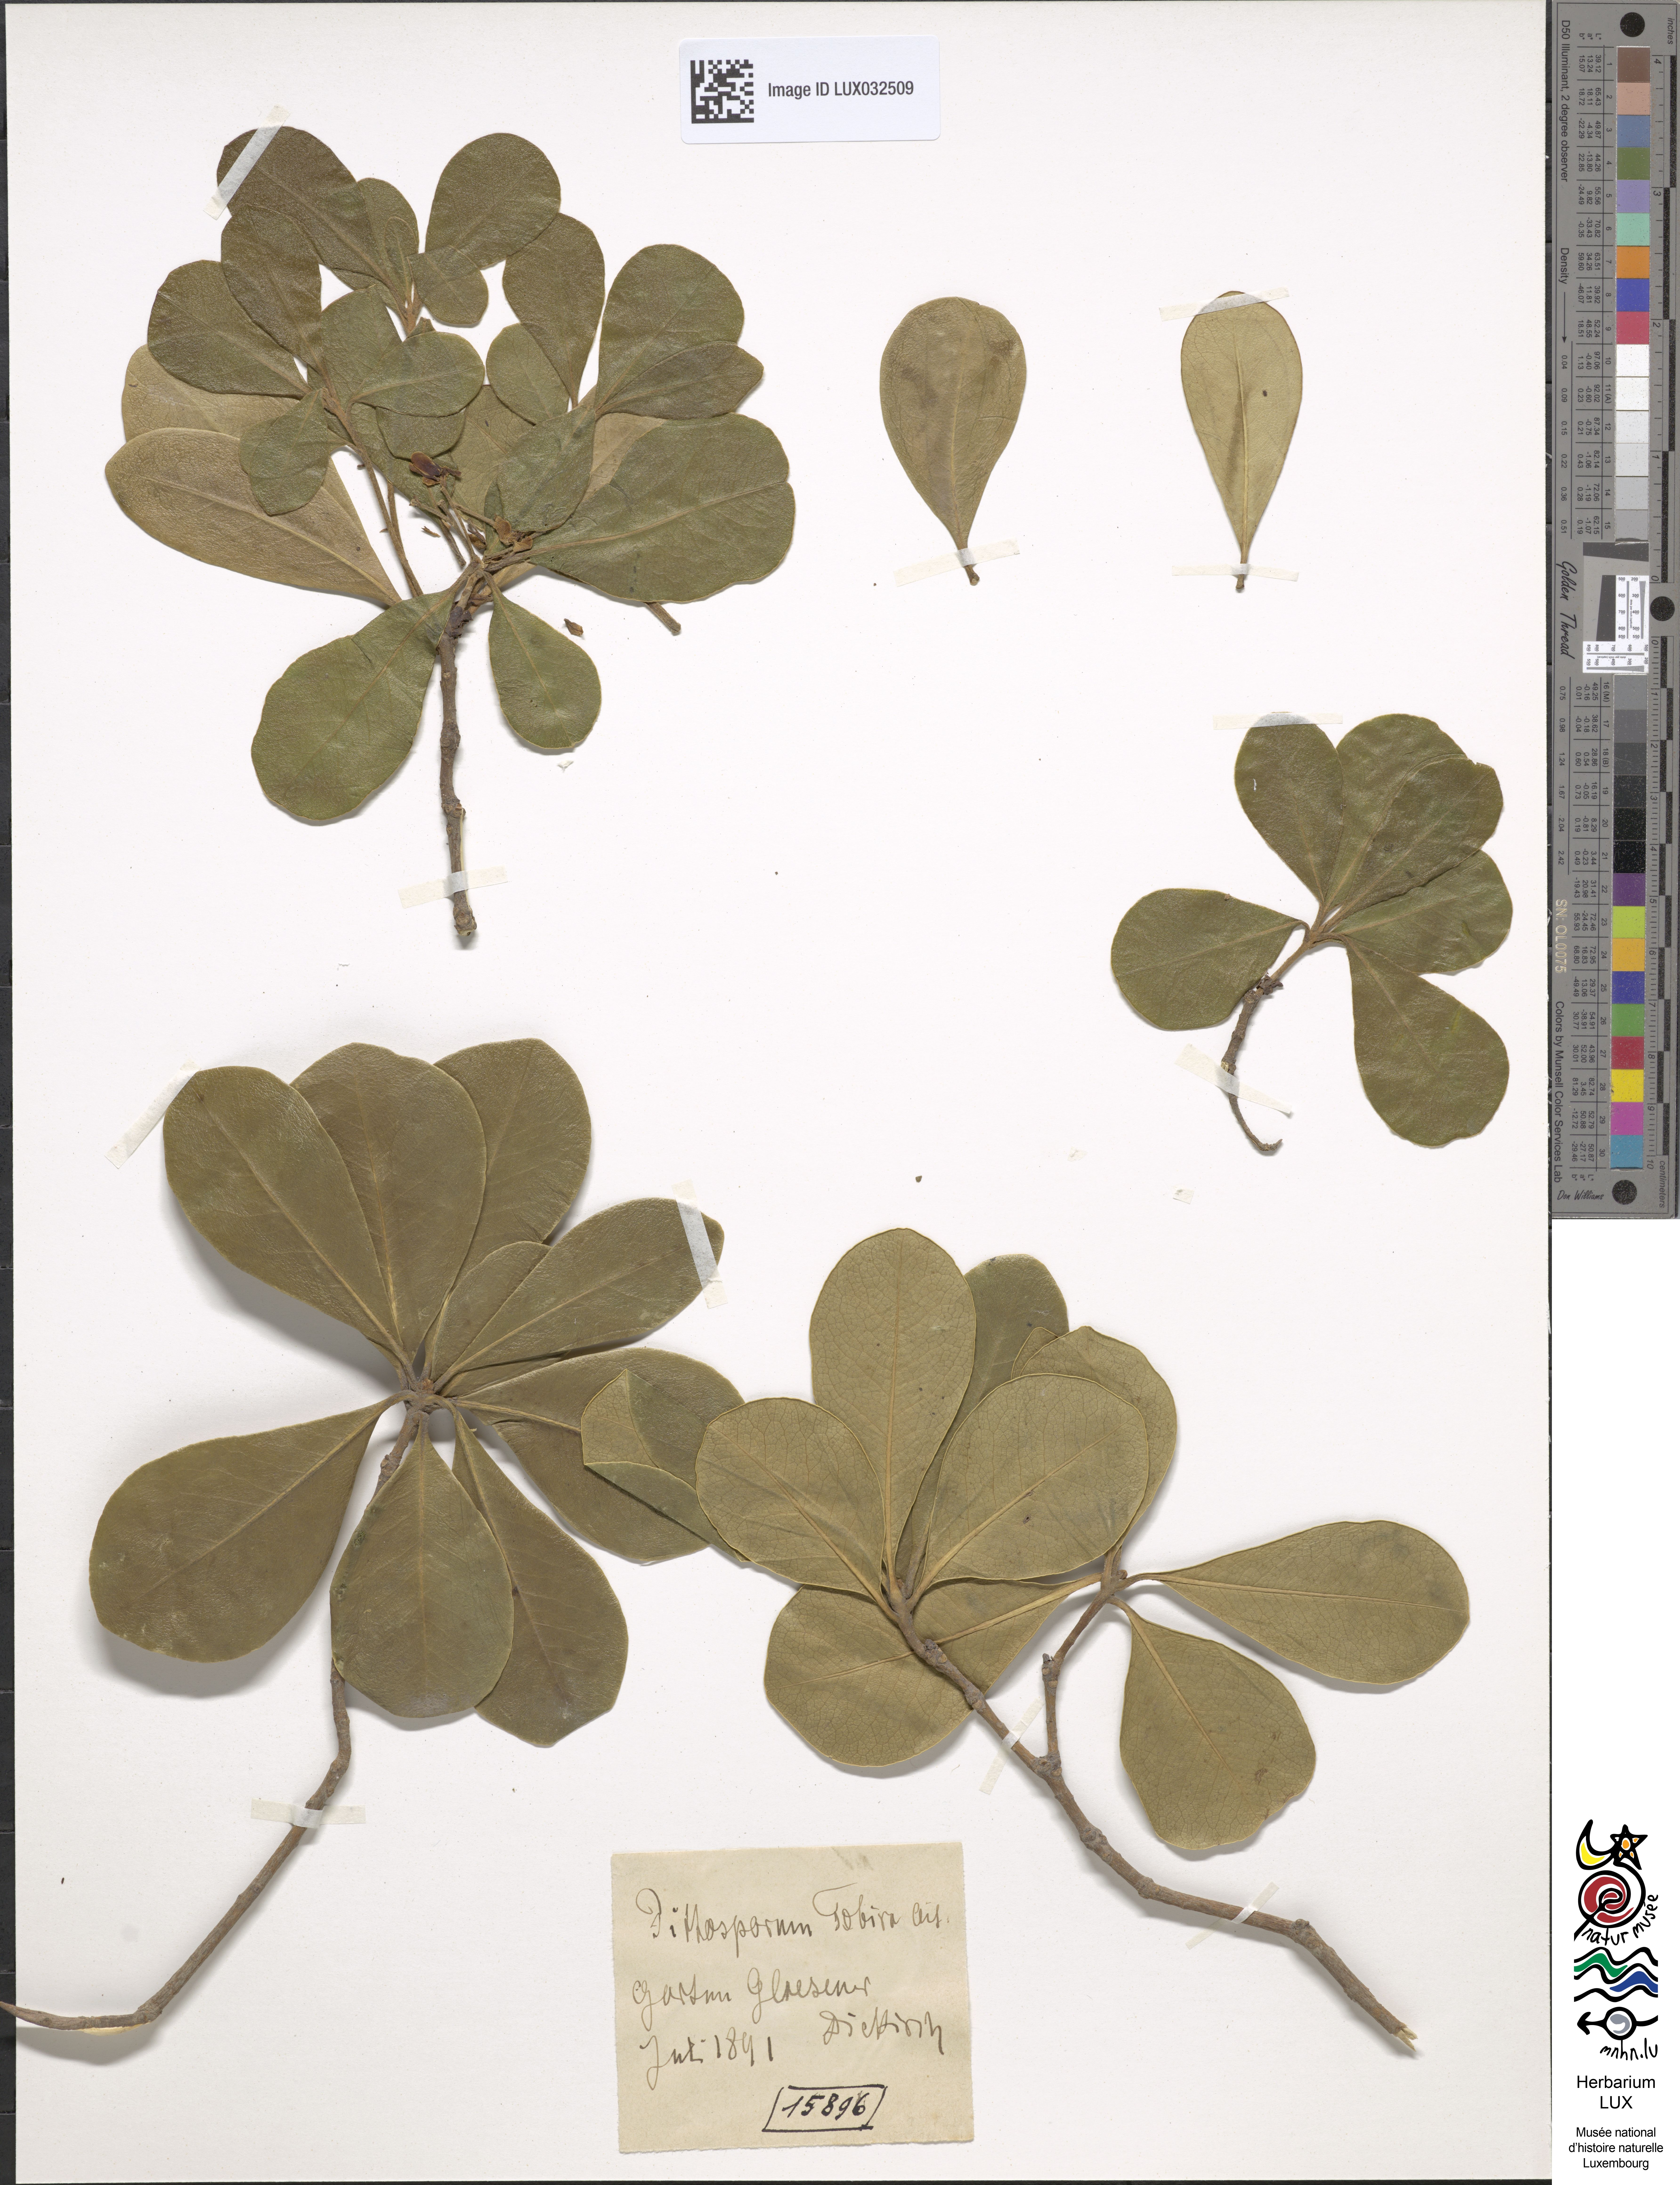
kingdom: Plantae
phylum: Tracheophyta
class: Magnoliopsida
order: Apiales
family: Pittosporaceae
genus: Pittosporum
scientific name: Pittosporum tobira
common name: Japanese cheesewood
